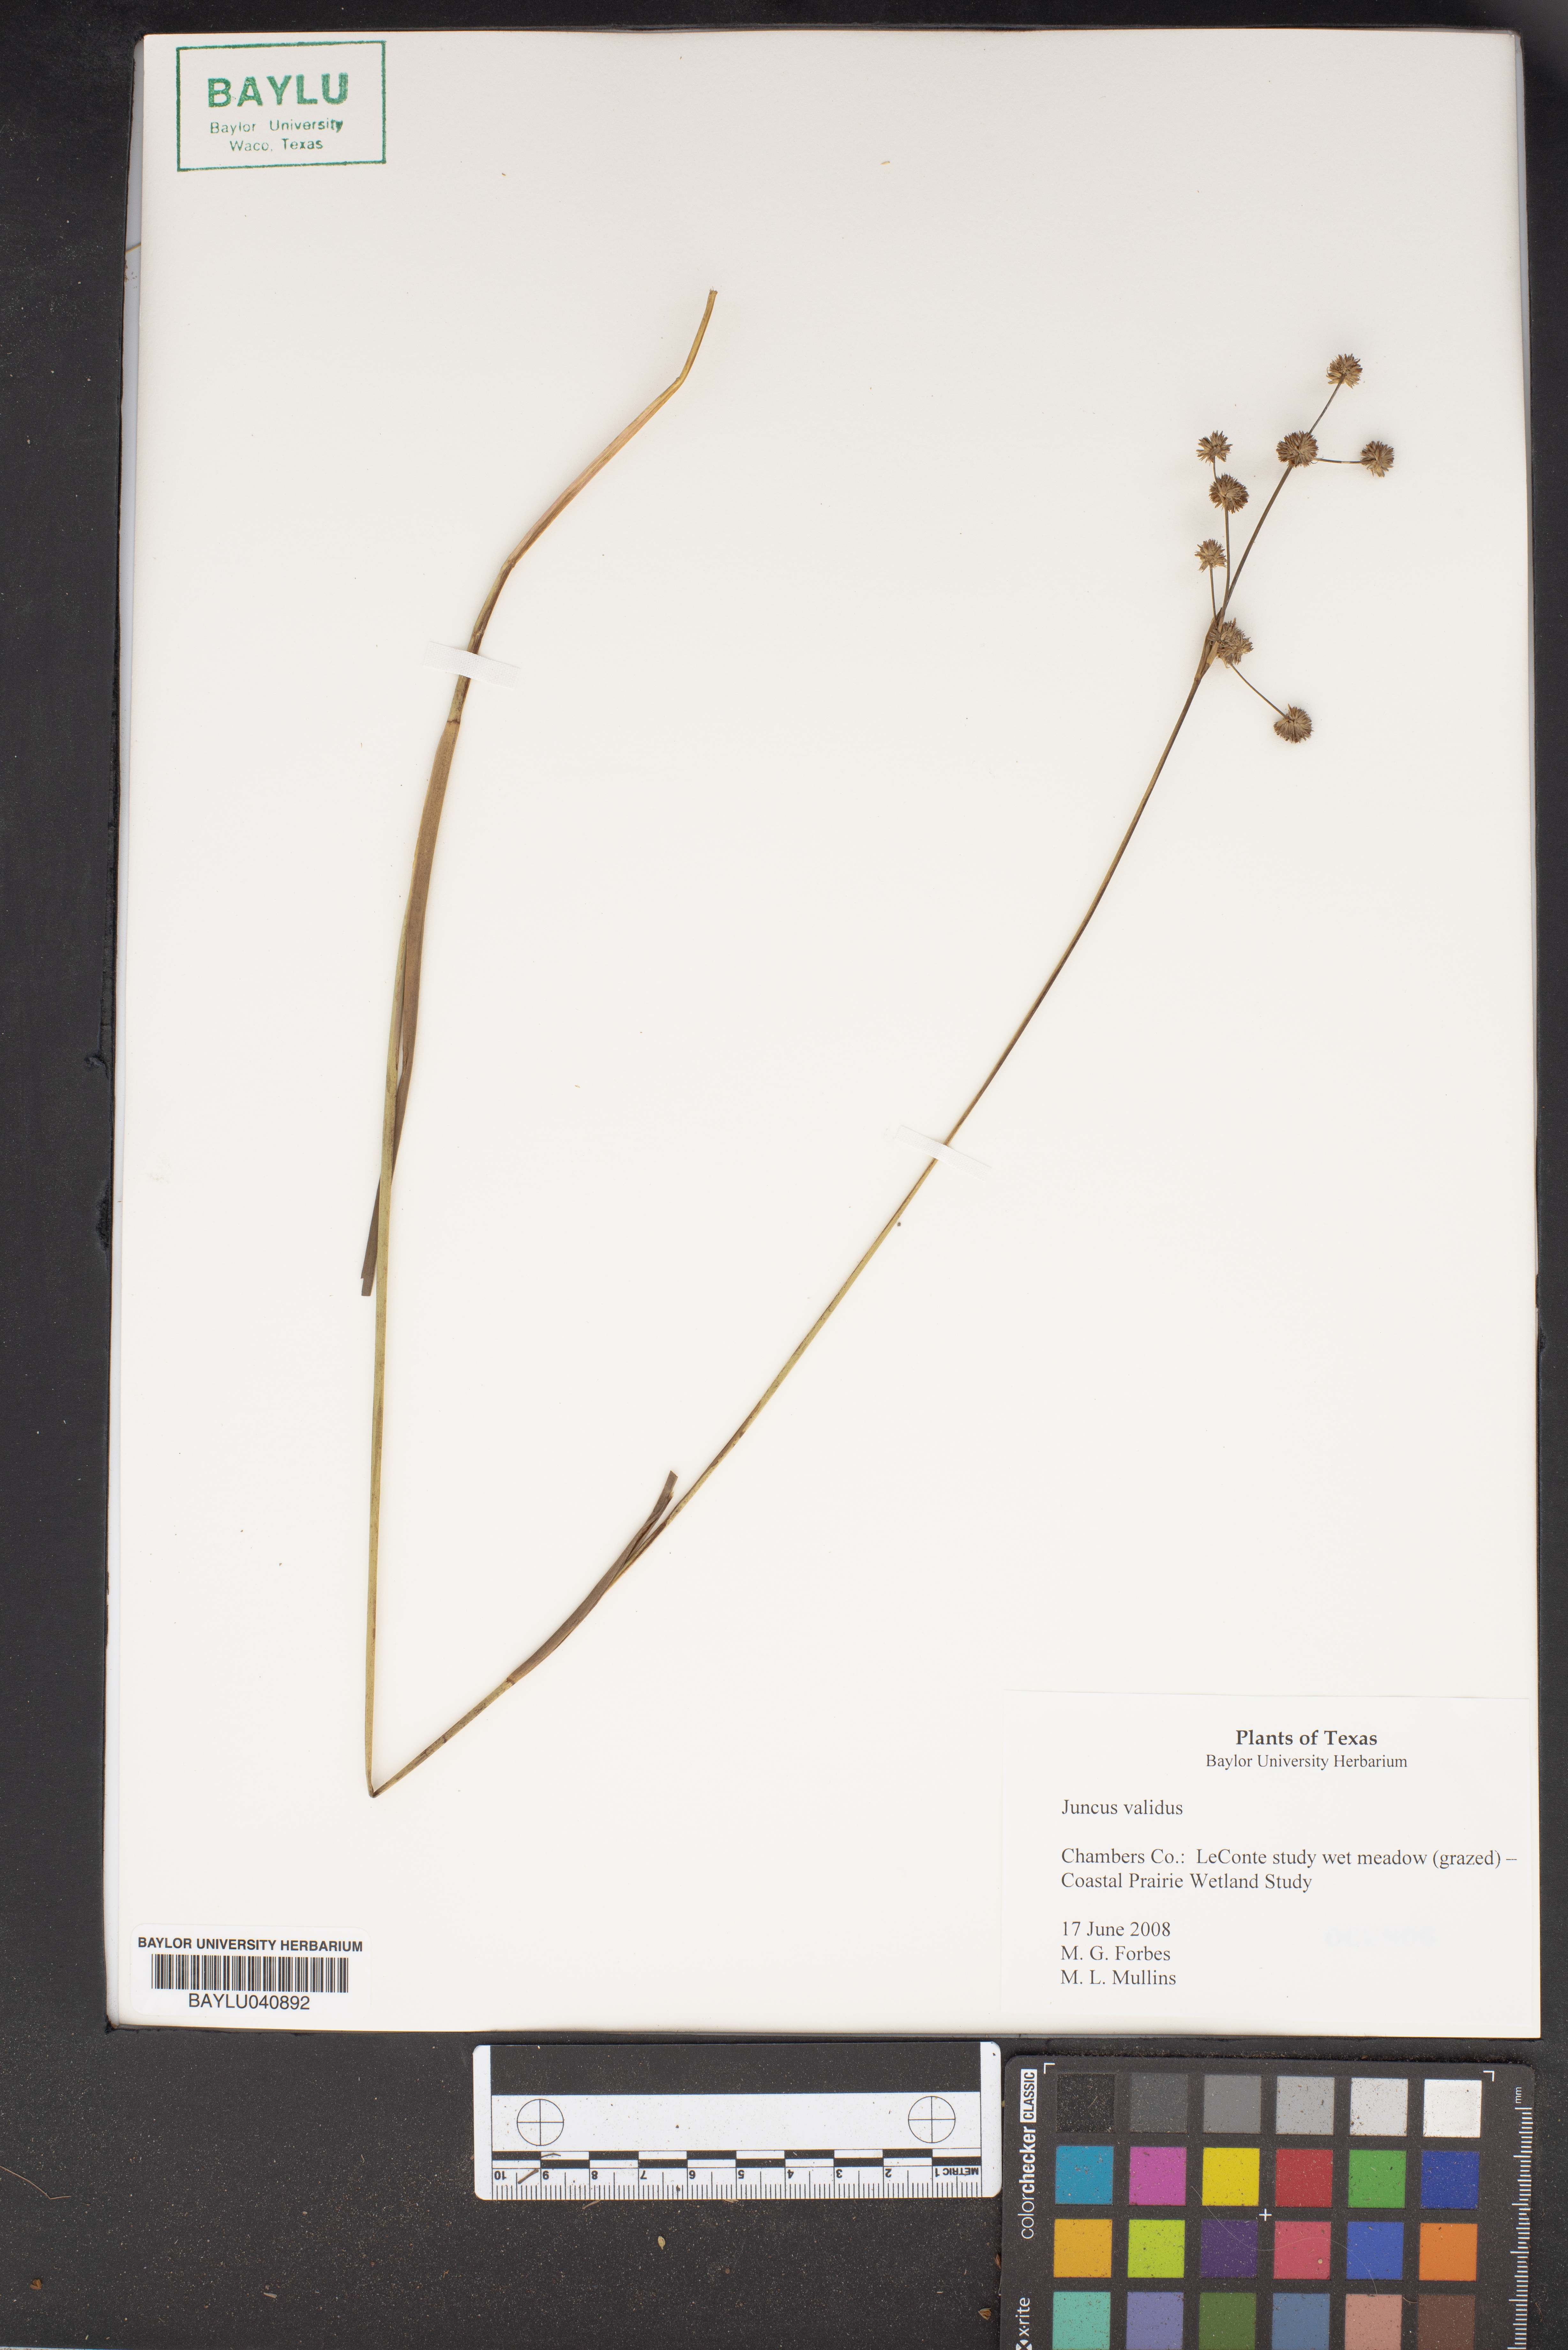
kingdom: Plantae
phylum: Tracheophyta
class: Liliopsida
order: Poales
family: Juncaceae
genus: Juncus
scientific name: Juncus validus
